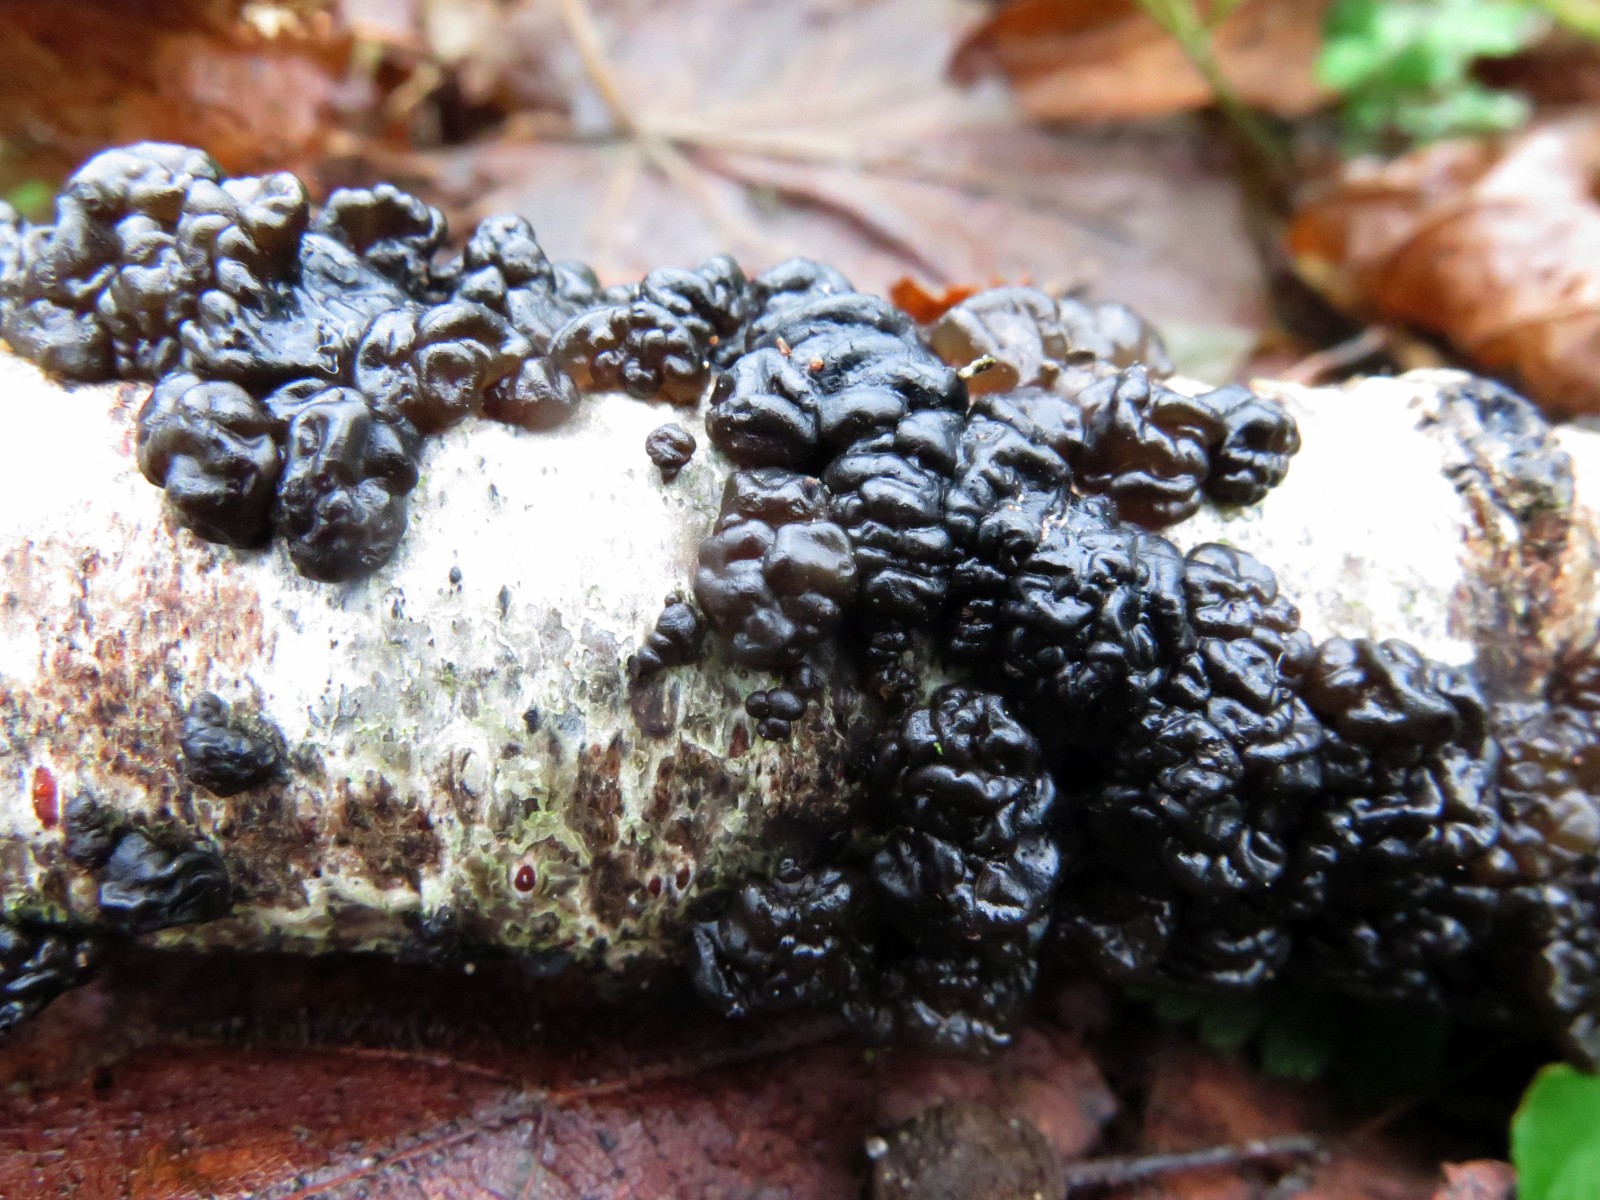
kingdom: Fungi
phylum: Basidiomycota
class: Agaricomycetes
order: Auriculariales
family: Auriculariaceae
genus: Exidia
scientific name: Exidia nigricans
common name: almindelig bævretop
